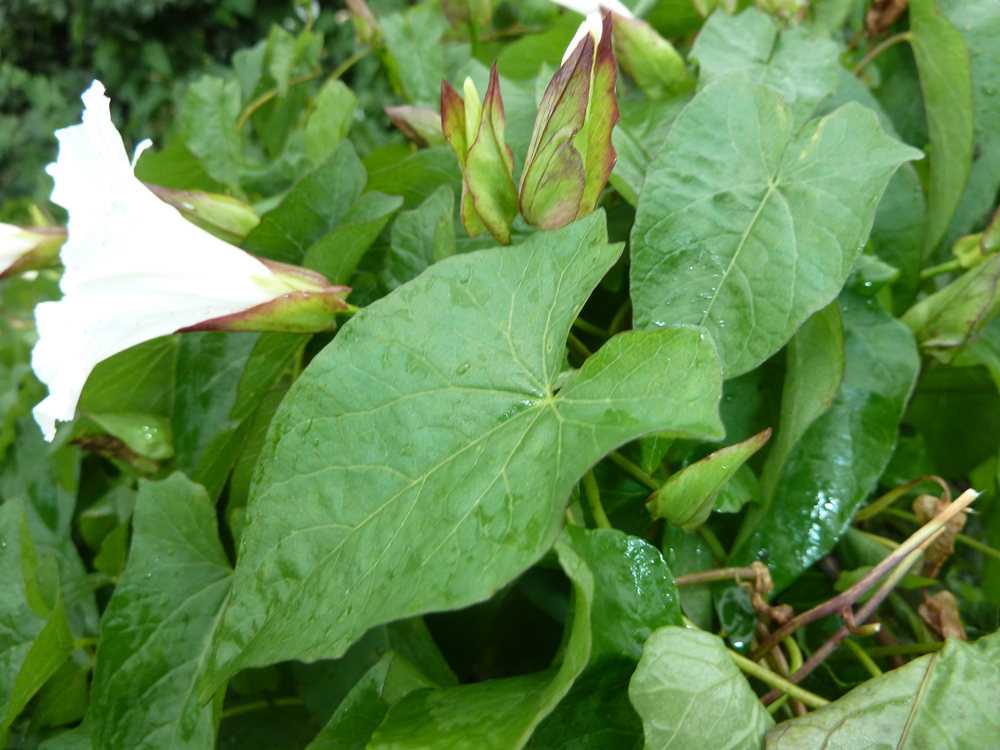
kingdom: Plantae
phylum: Tracheophyta
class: Magnoliopsida
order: Solanales
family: Convolvulaceae
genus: Calystegia
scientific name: Calystegia sepium
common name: Hedge bindweed
